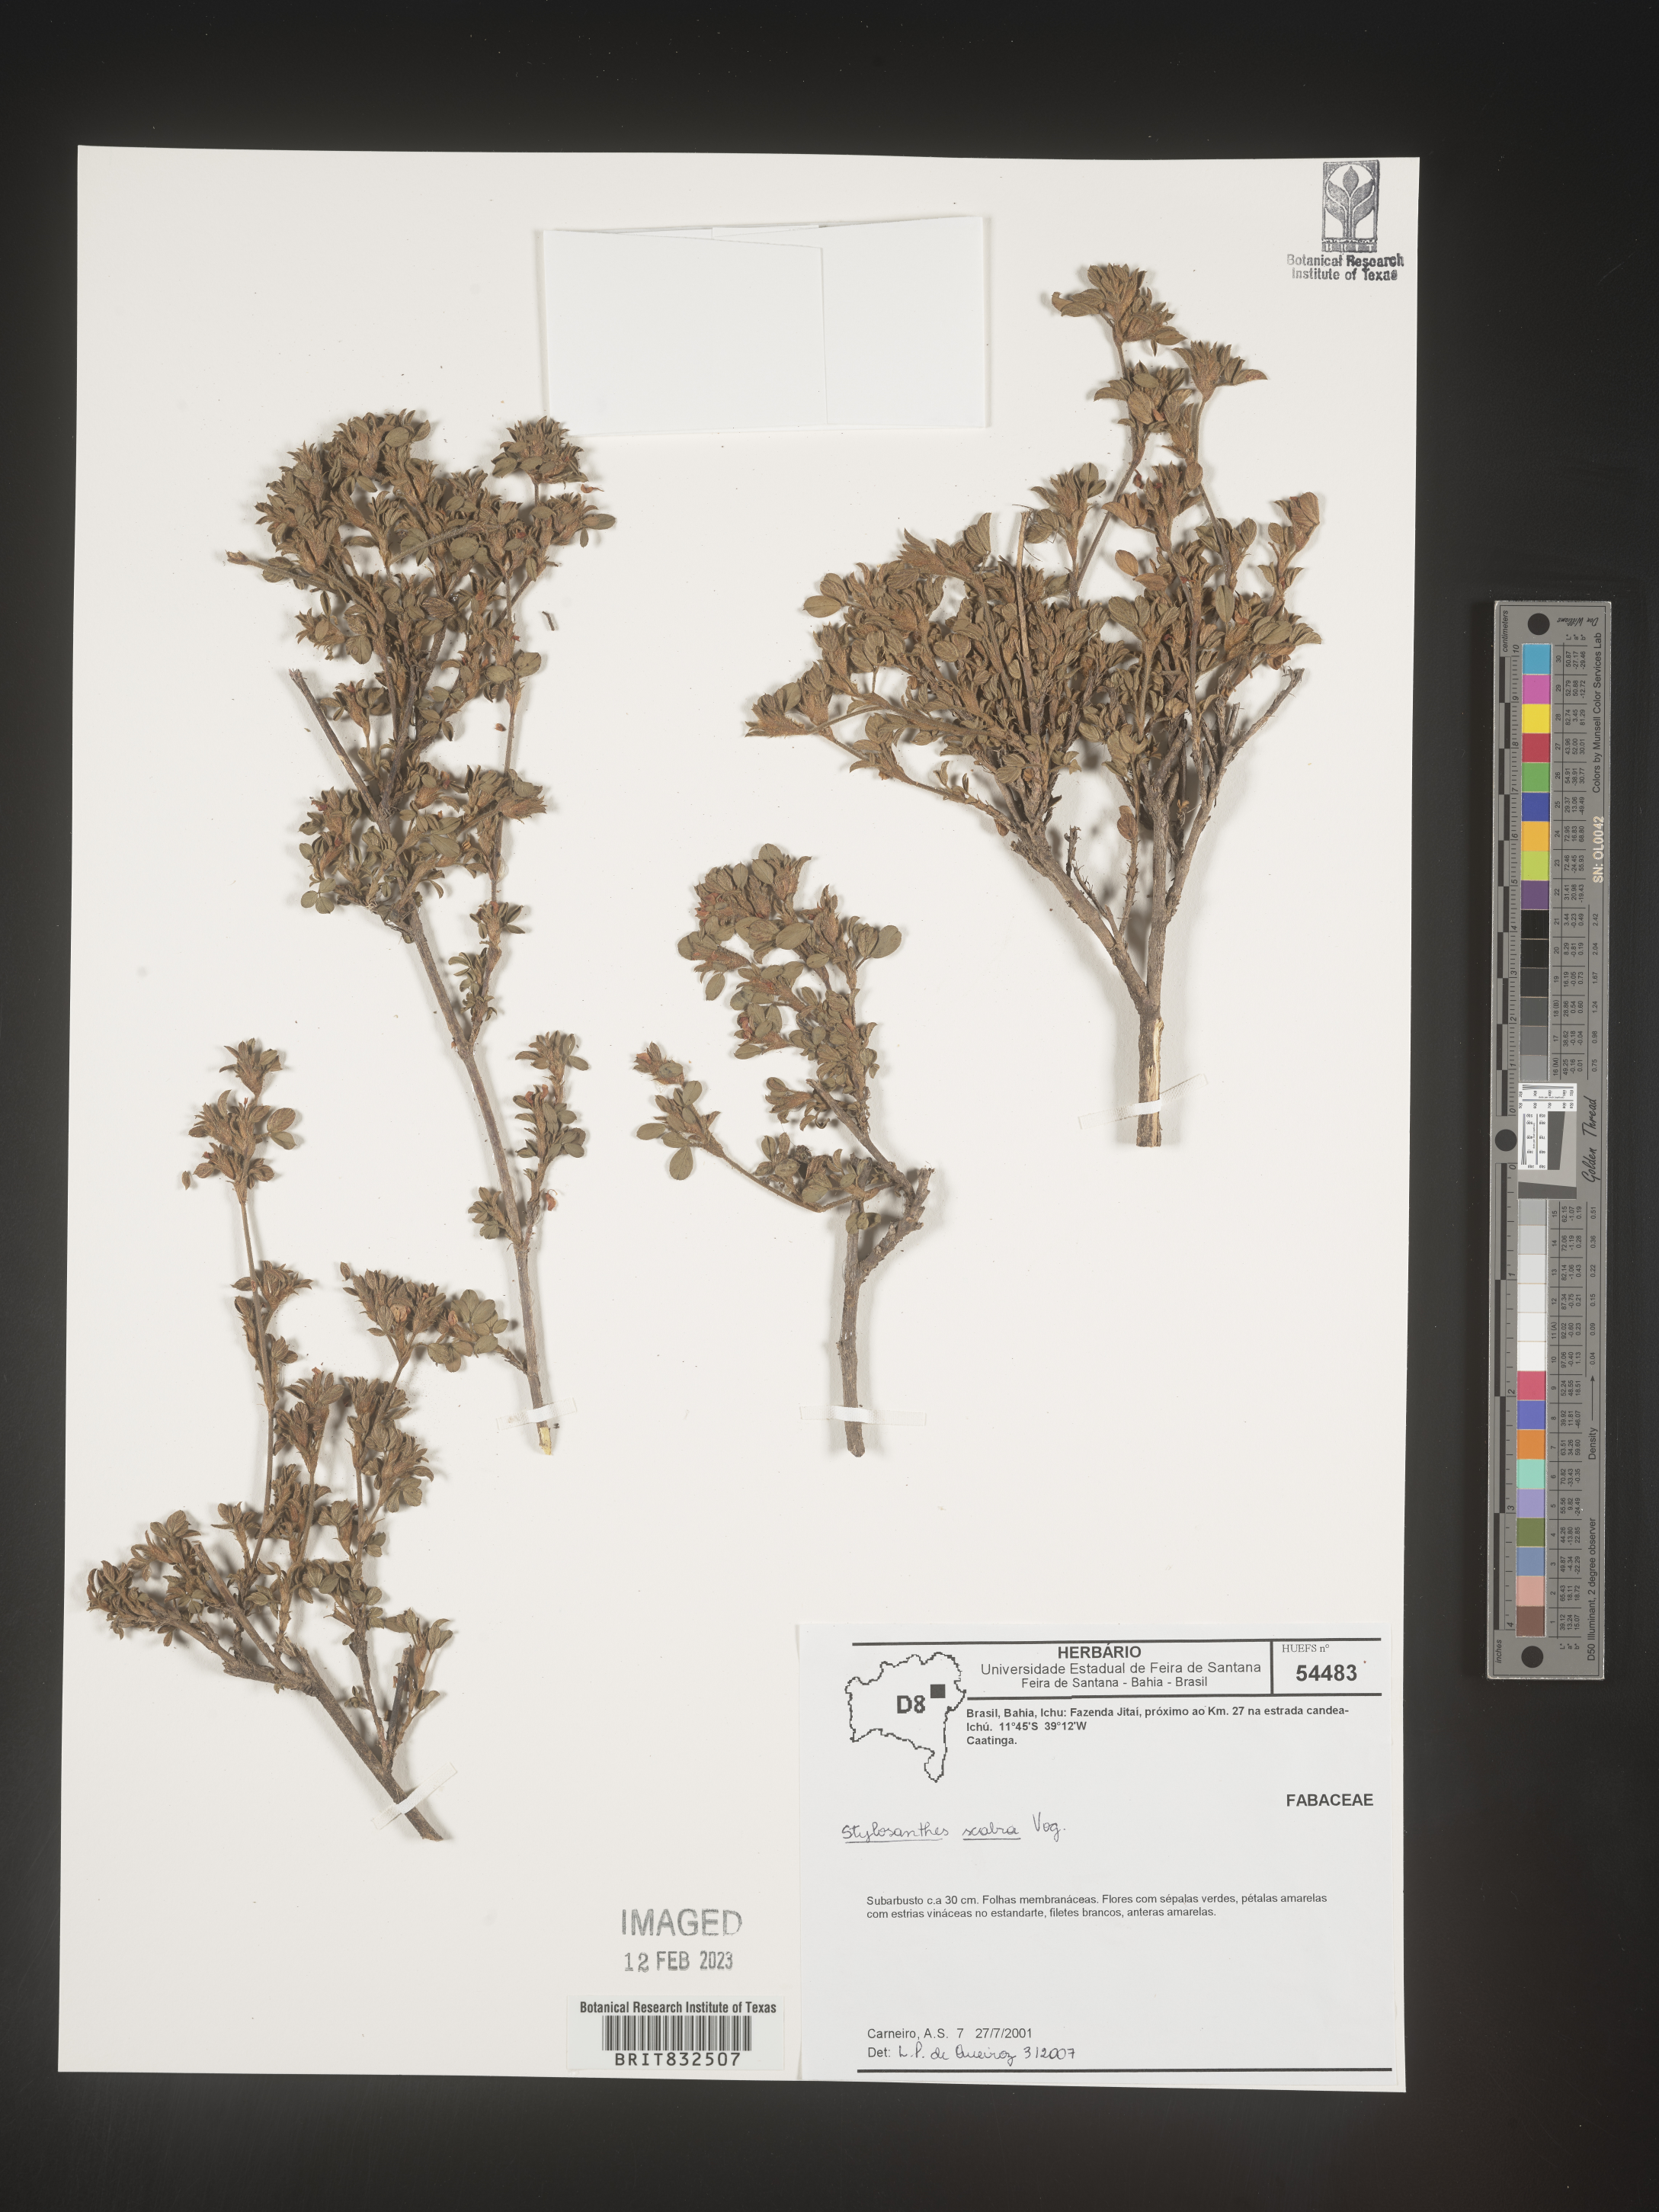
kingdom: Plantae
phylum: Tracheophyta
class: Magnoliopsida
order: Fabales
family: Fabaceae
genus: Stylosanthes
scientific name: Stylosanthes
